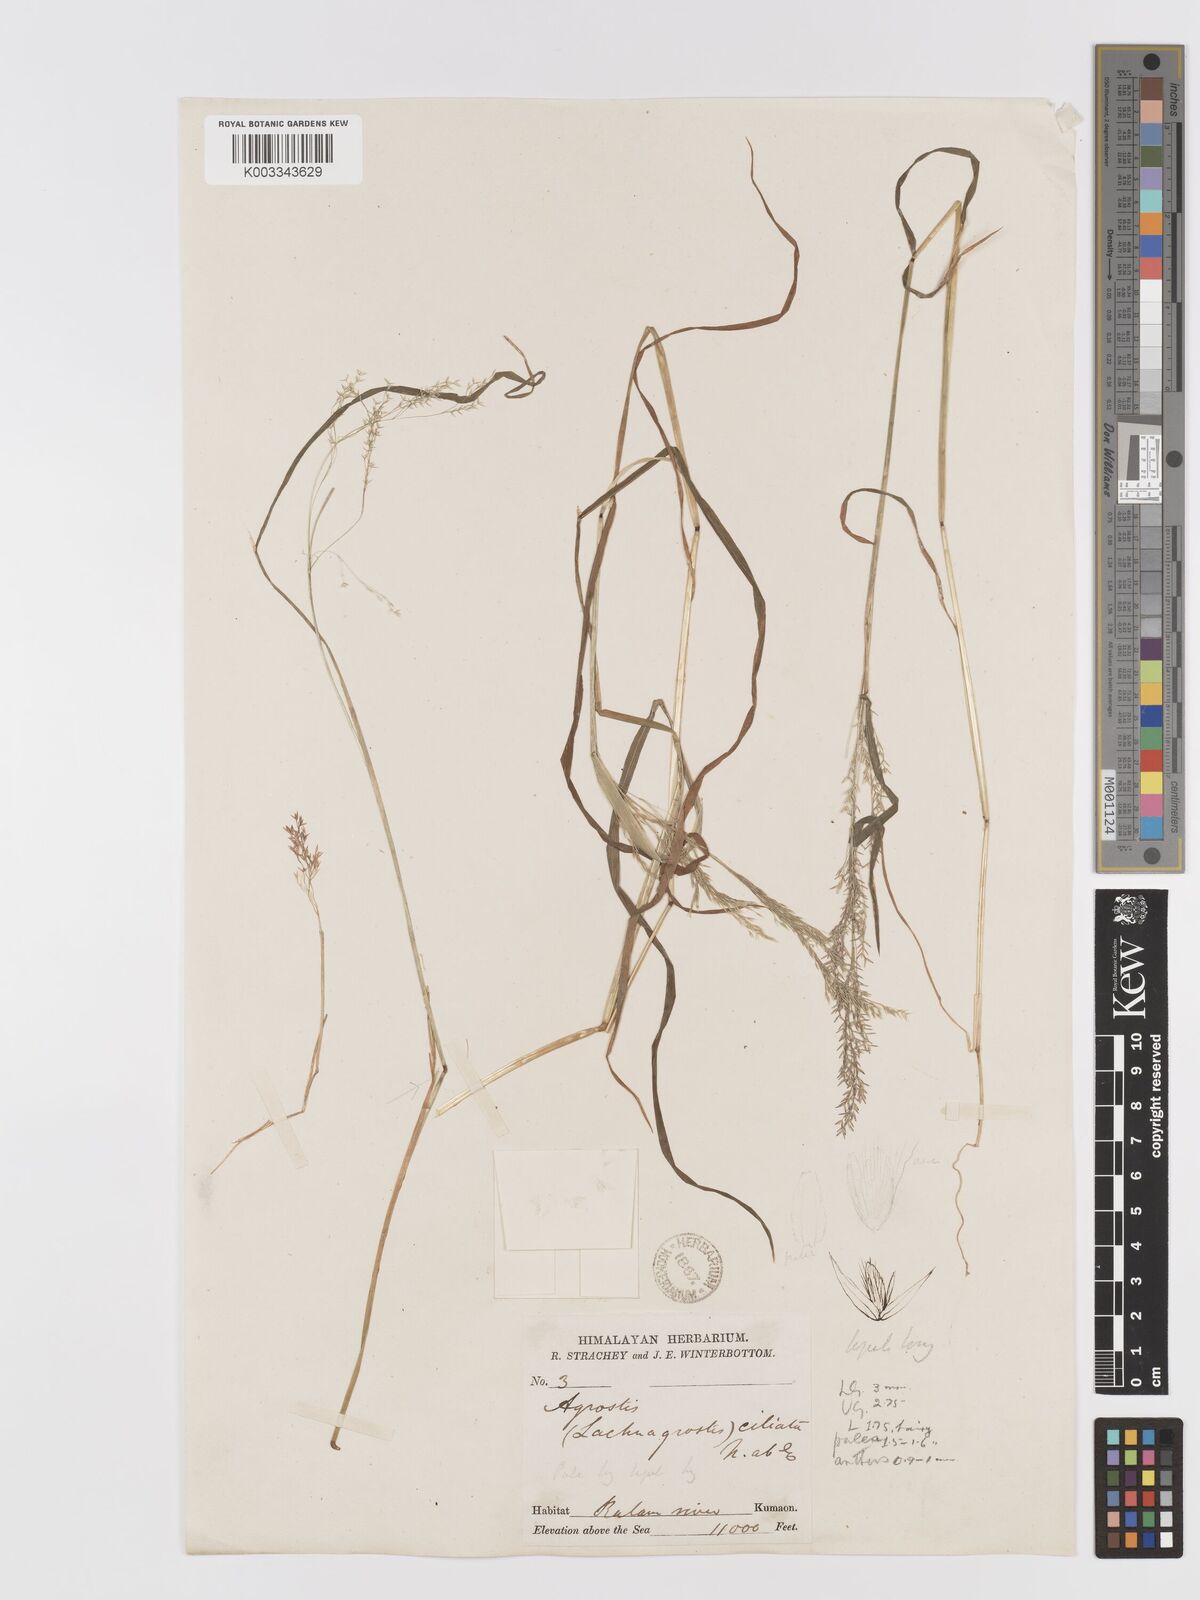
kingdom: Plantae
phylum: Tracheophyta
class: Liliopsida
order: Poales
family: Poaceae
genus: Agrostis
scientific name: Agrostis munroana
